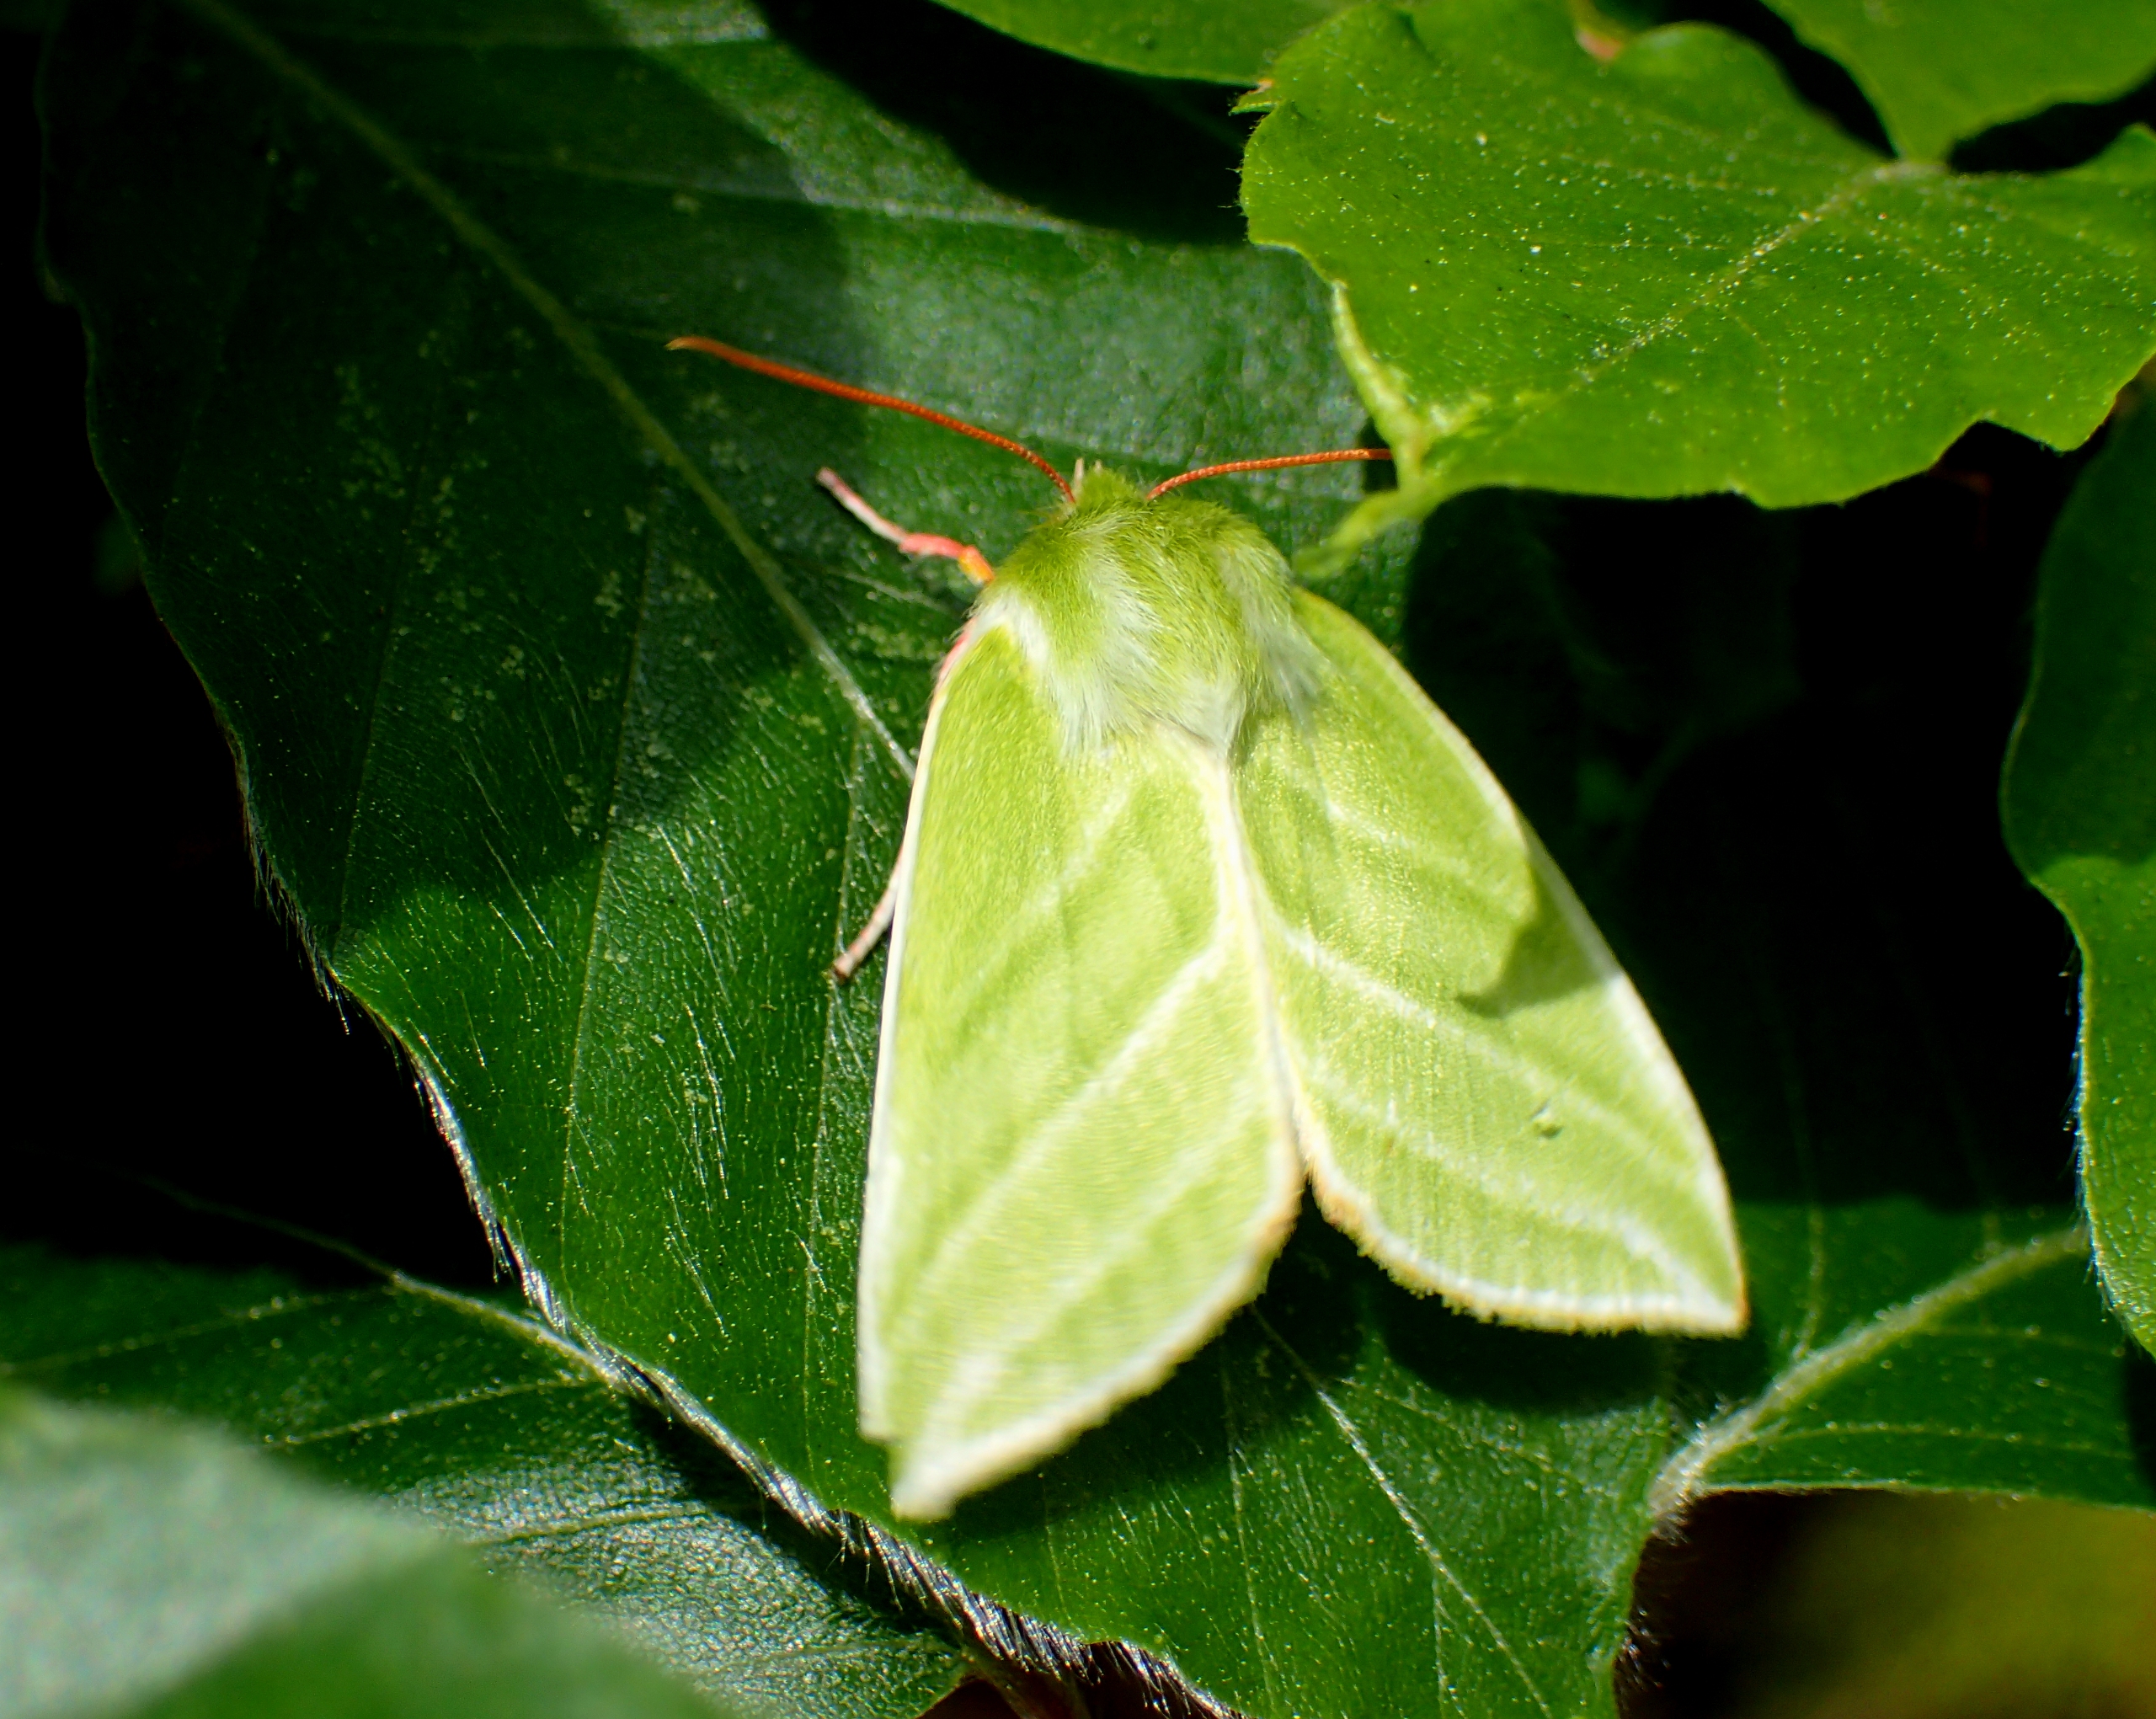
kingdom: Animalia
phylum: Arthropoda
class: Insecta
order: Lepidoptera
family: Nolidae
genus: Pseudoips
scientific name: Pseudoips prasinana
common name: Grøn bøgeugle
